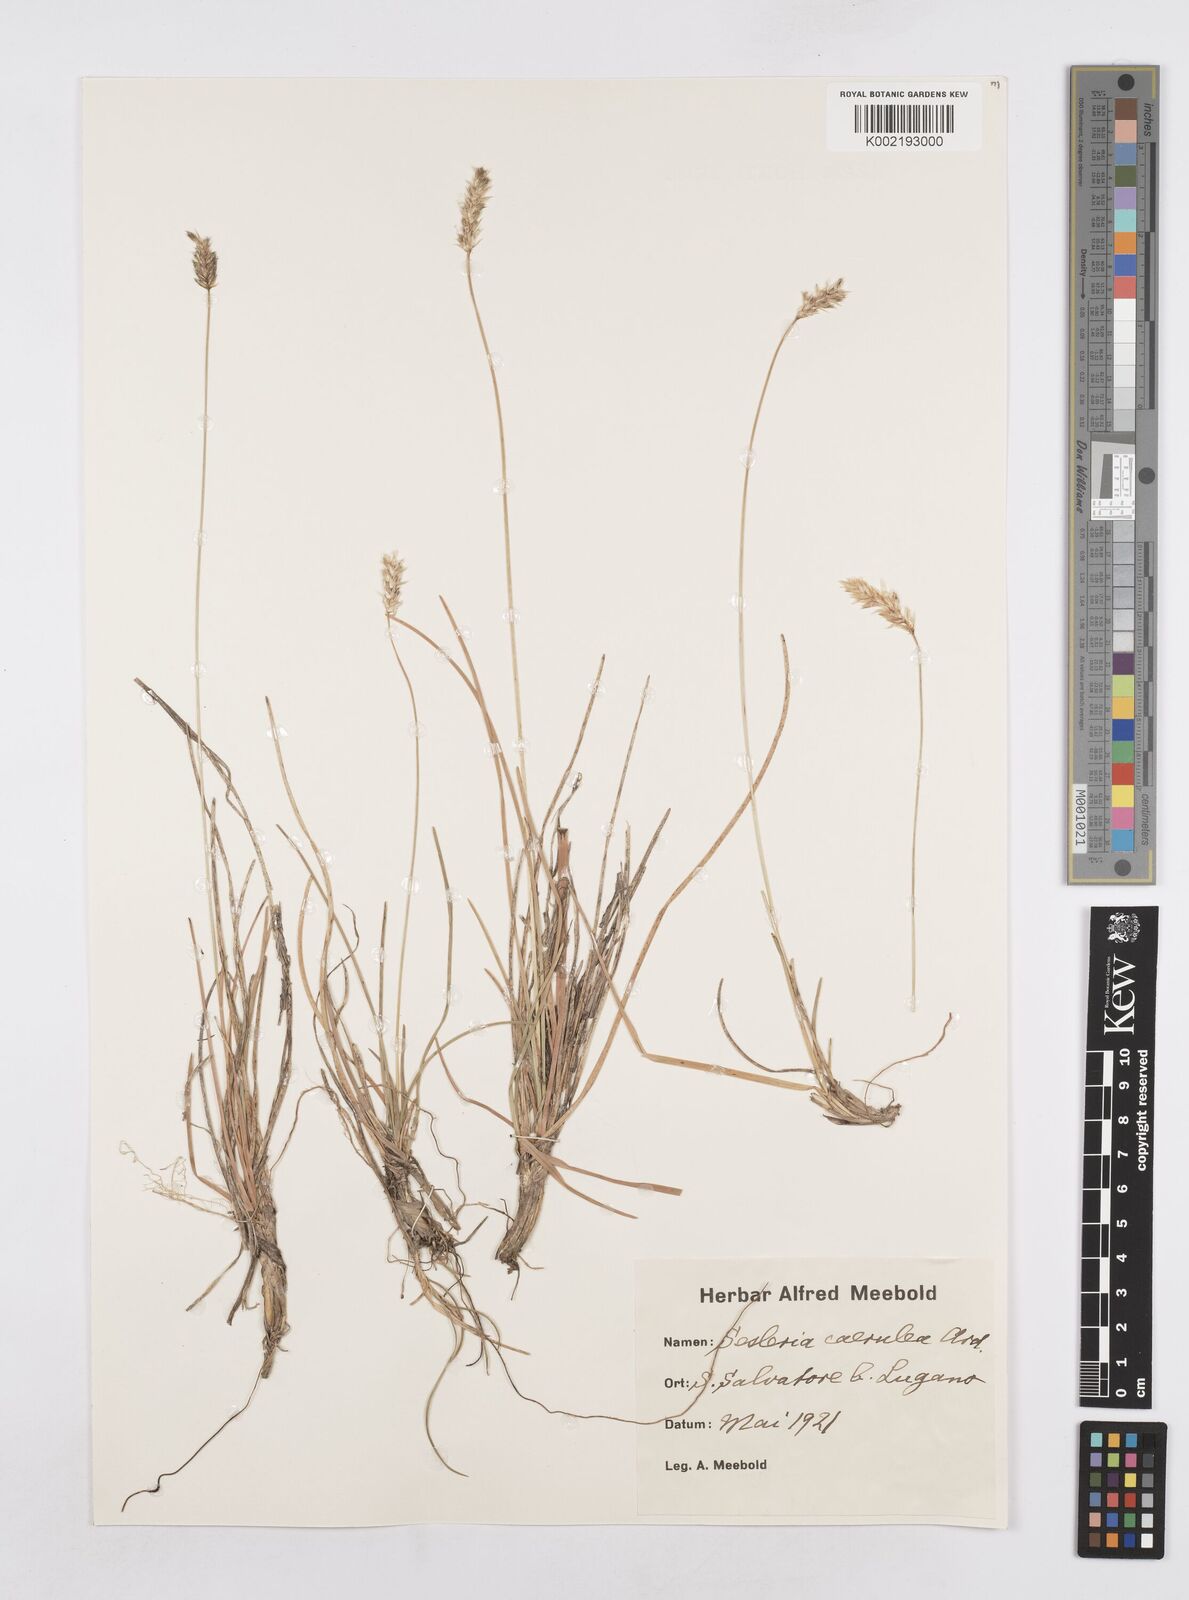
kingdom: Plantae
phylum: Tracheophyta
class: Liliopsida
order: Poales
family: Poaceae
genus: Sesleria
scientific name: Sesleria caerulea
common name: Blue moor-grass
